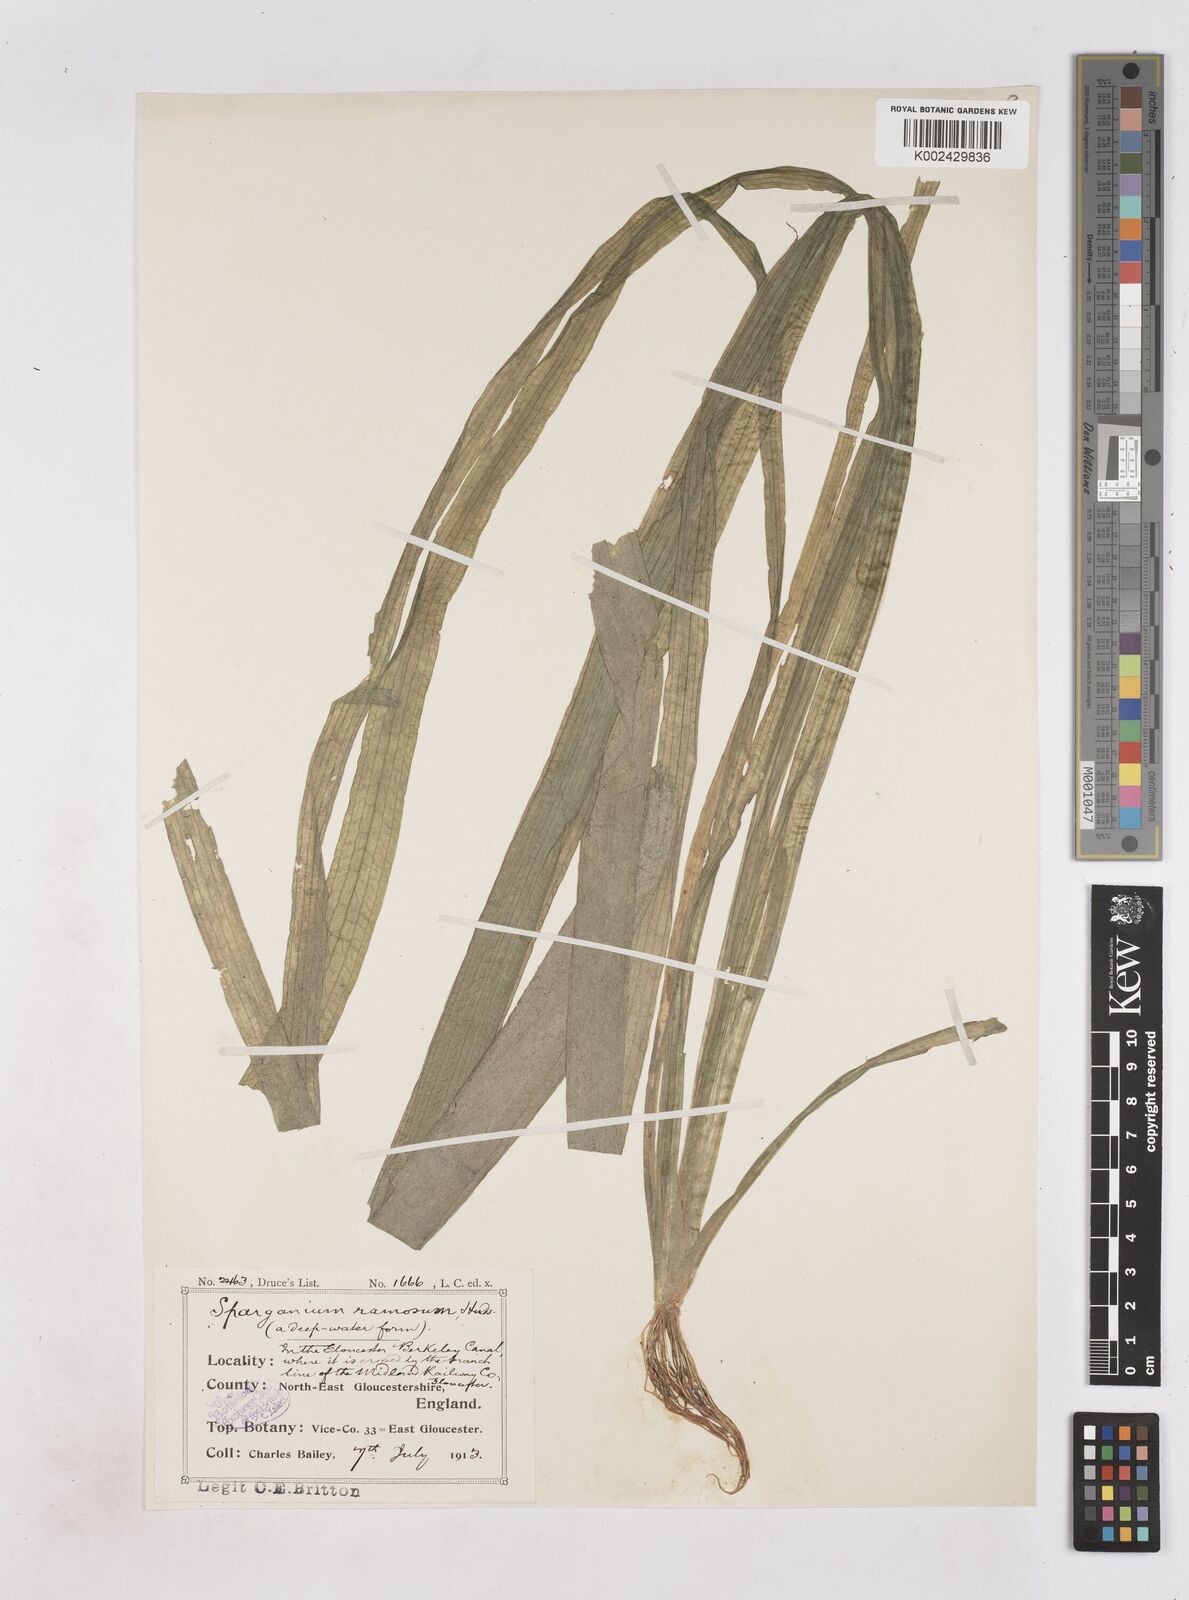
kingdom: Plantae
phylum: Tracheophyta
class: Liliopsida
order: Poales
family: Typhaceae
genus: Sparganium
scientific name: Sparganium erectum
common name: Branched bur-reed
